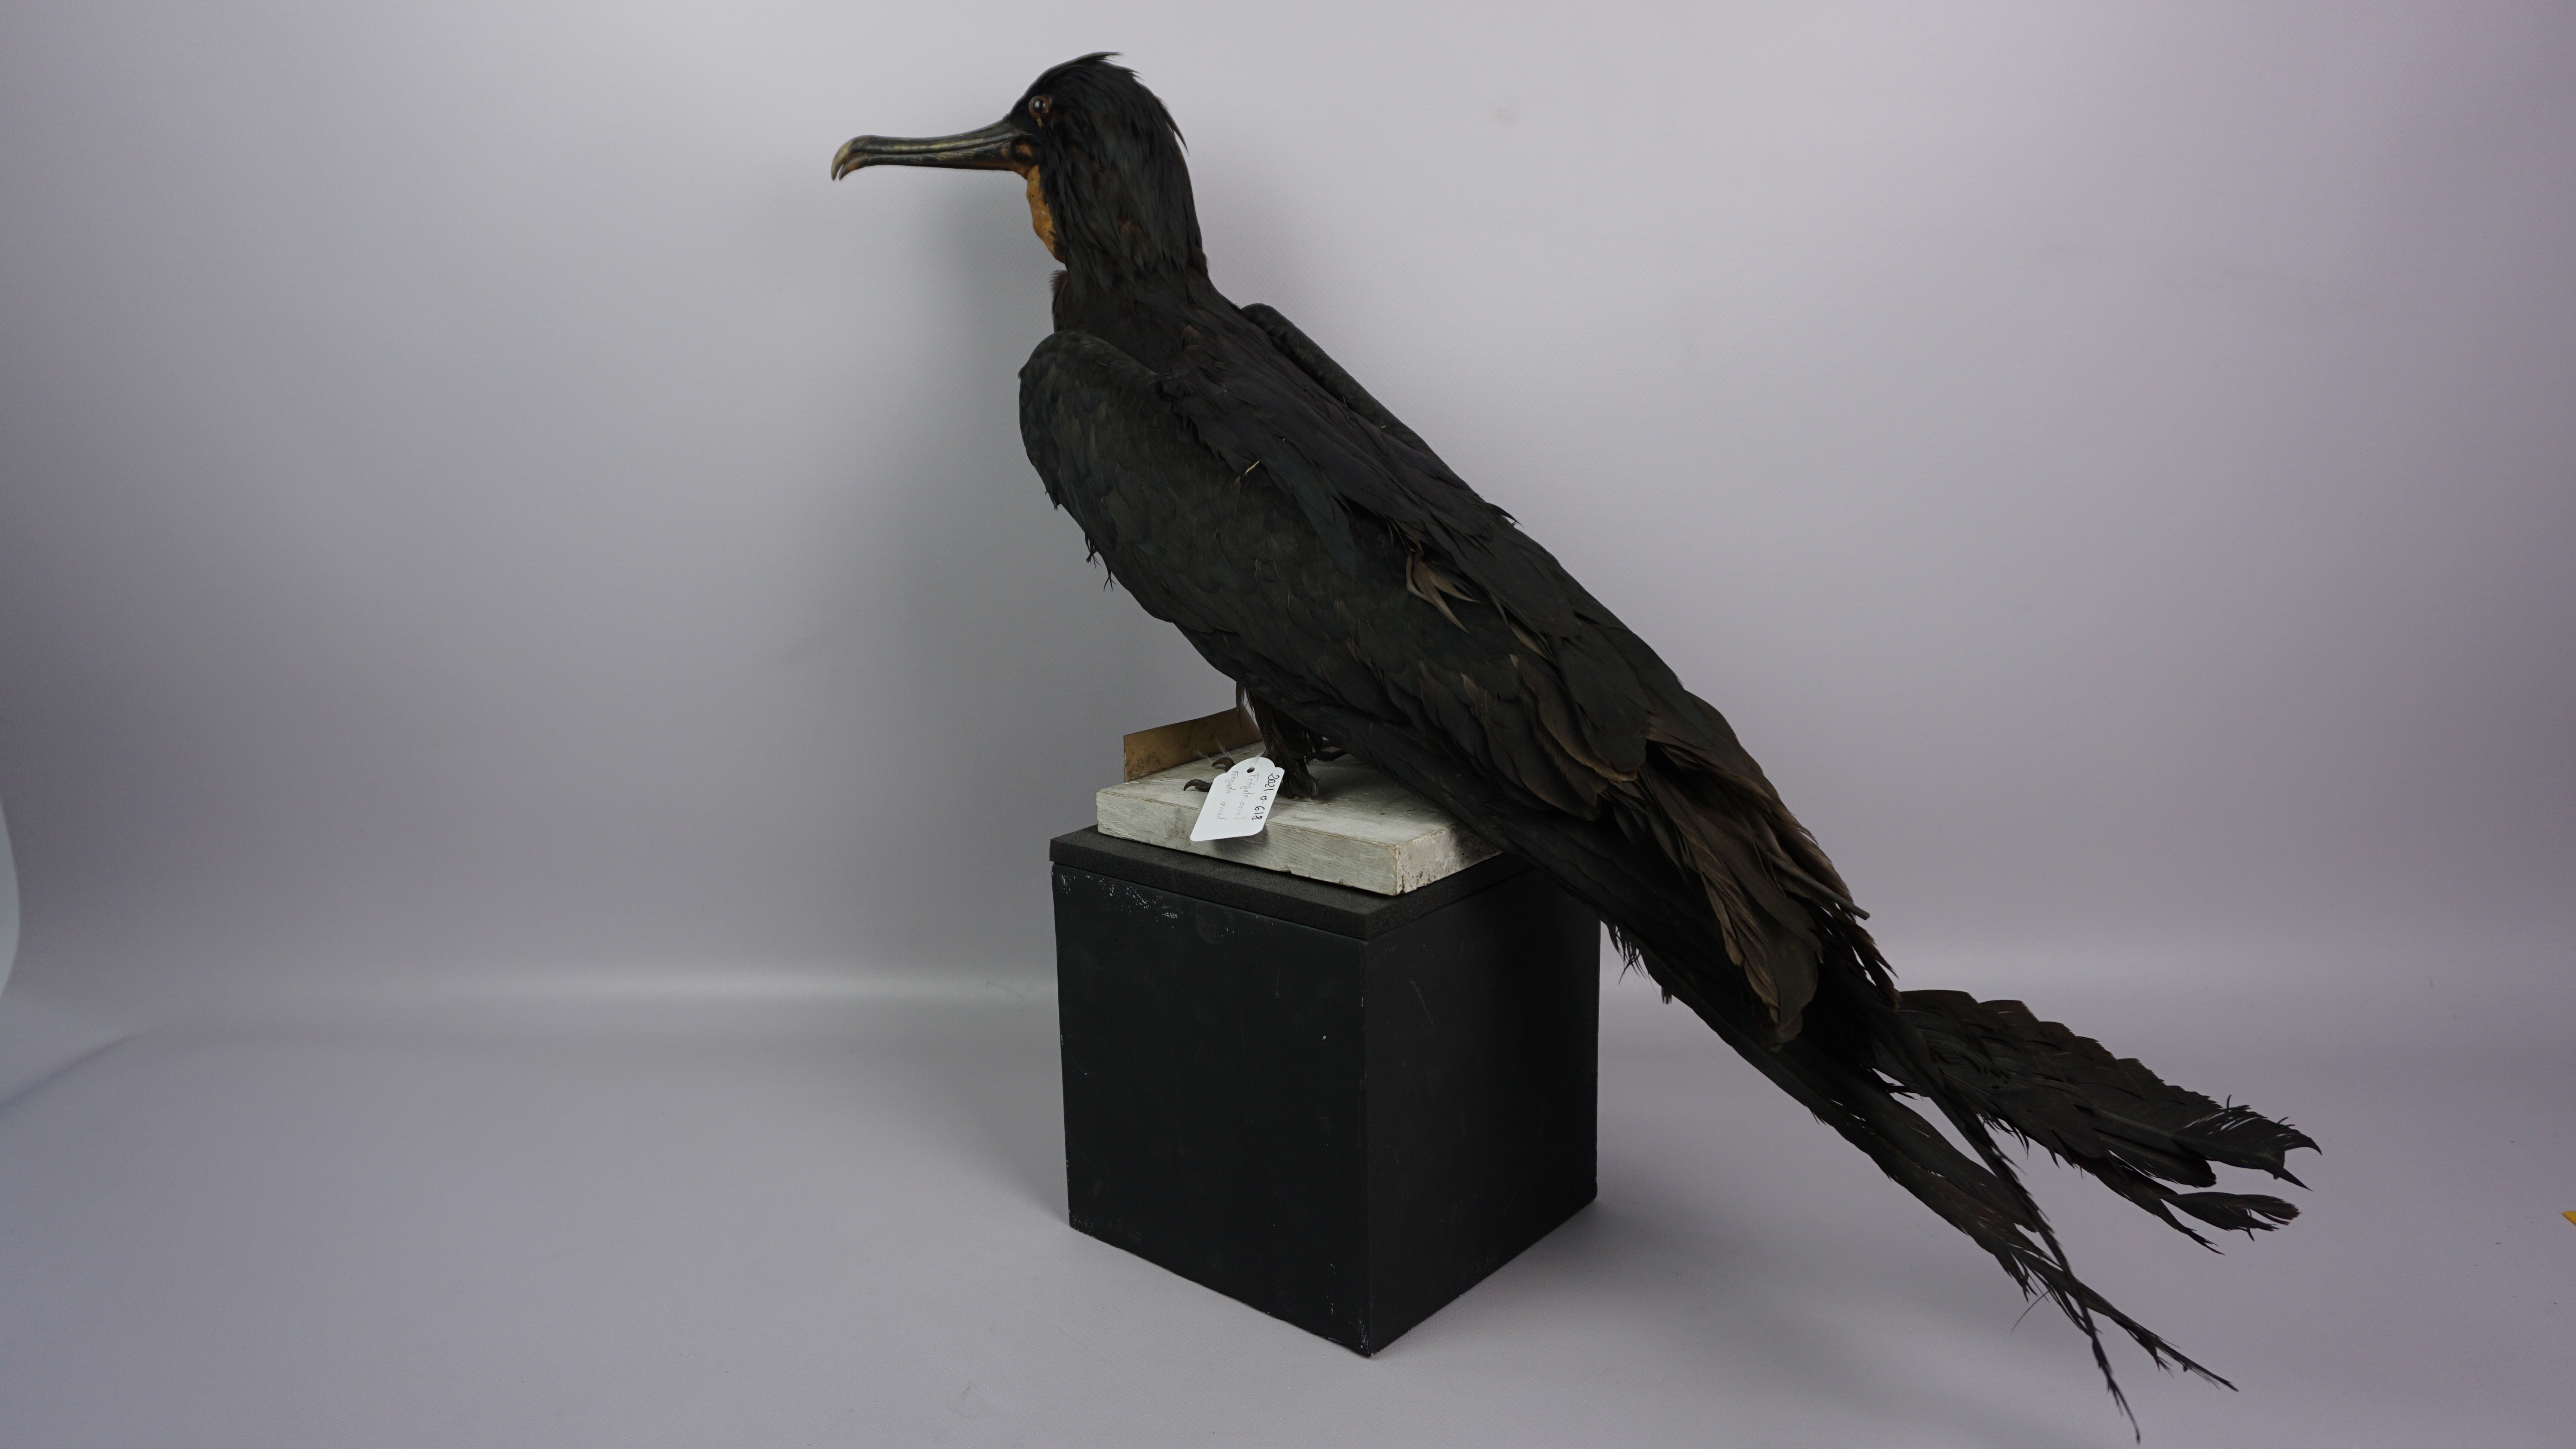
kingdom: Animalia
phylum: Chordata
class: Aves
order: Suliformes
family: Fregatidae
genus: Fregata
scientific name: Fregata ariel
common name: Lesser frigatebird
